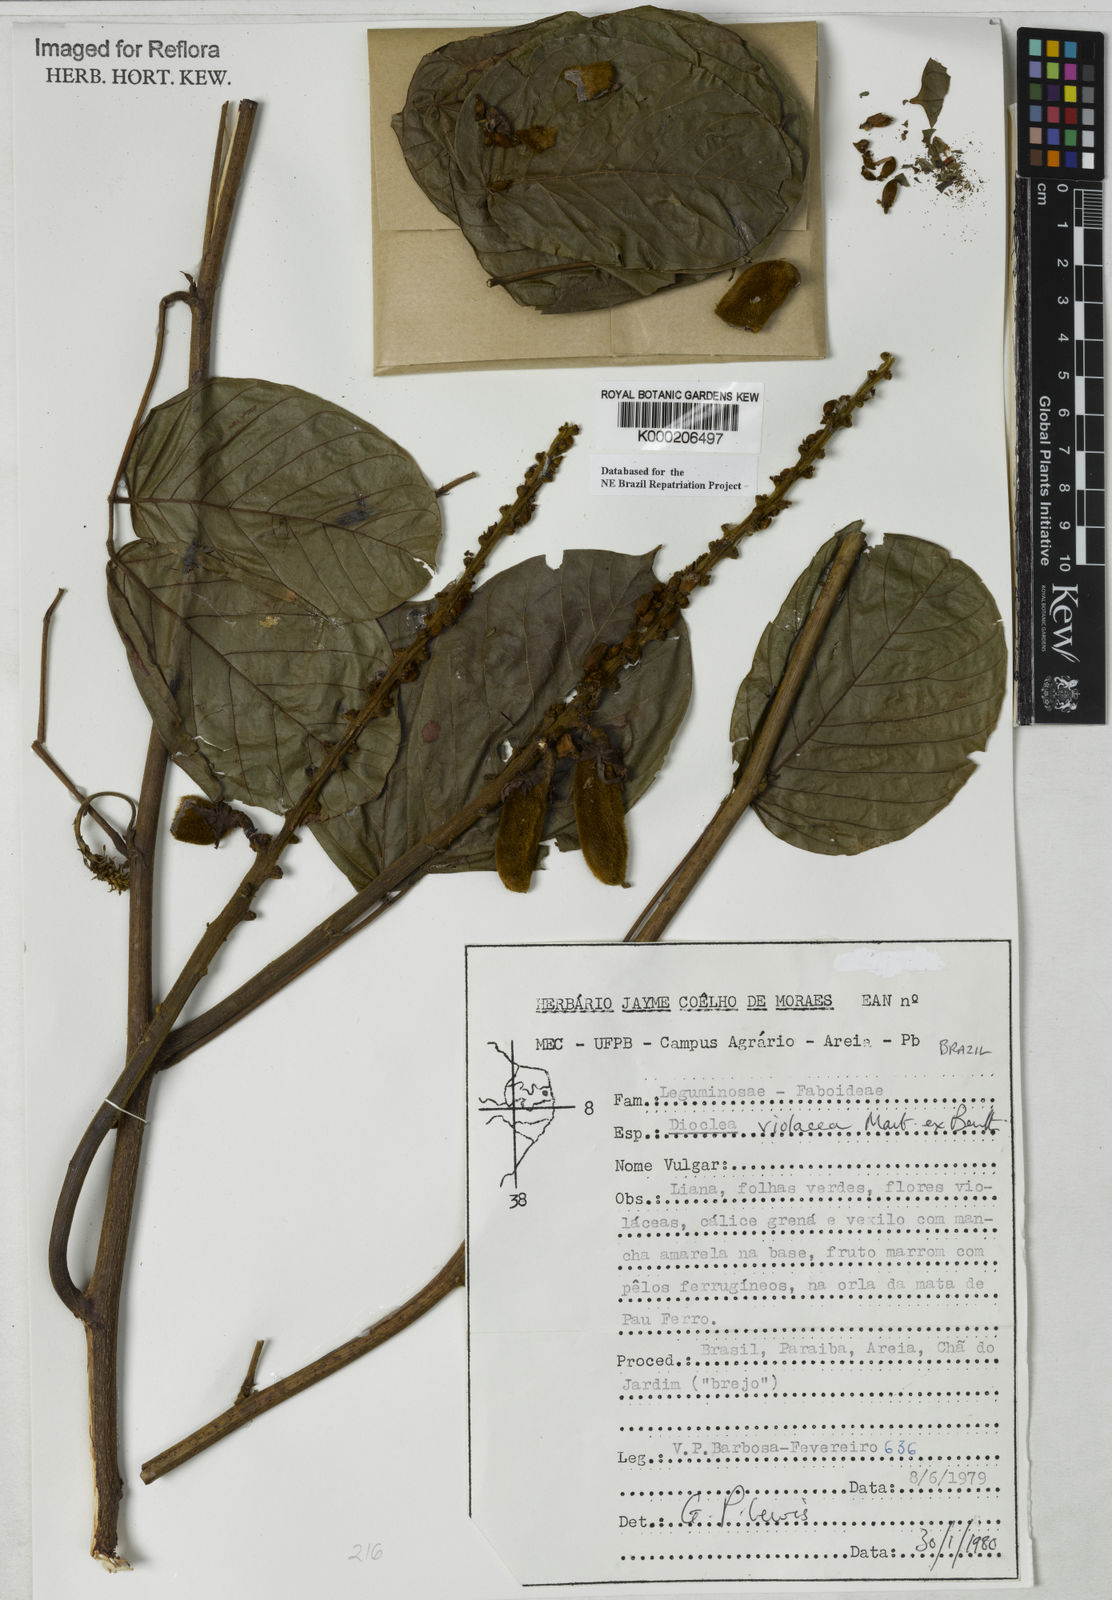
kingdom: Plantae
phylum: Tracheophyta
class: Magnoliopsida
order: Fabales
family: Fabaceae
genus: Macropsychanthus
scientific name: Macropsychanthus violaceus
